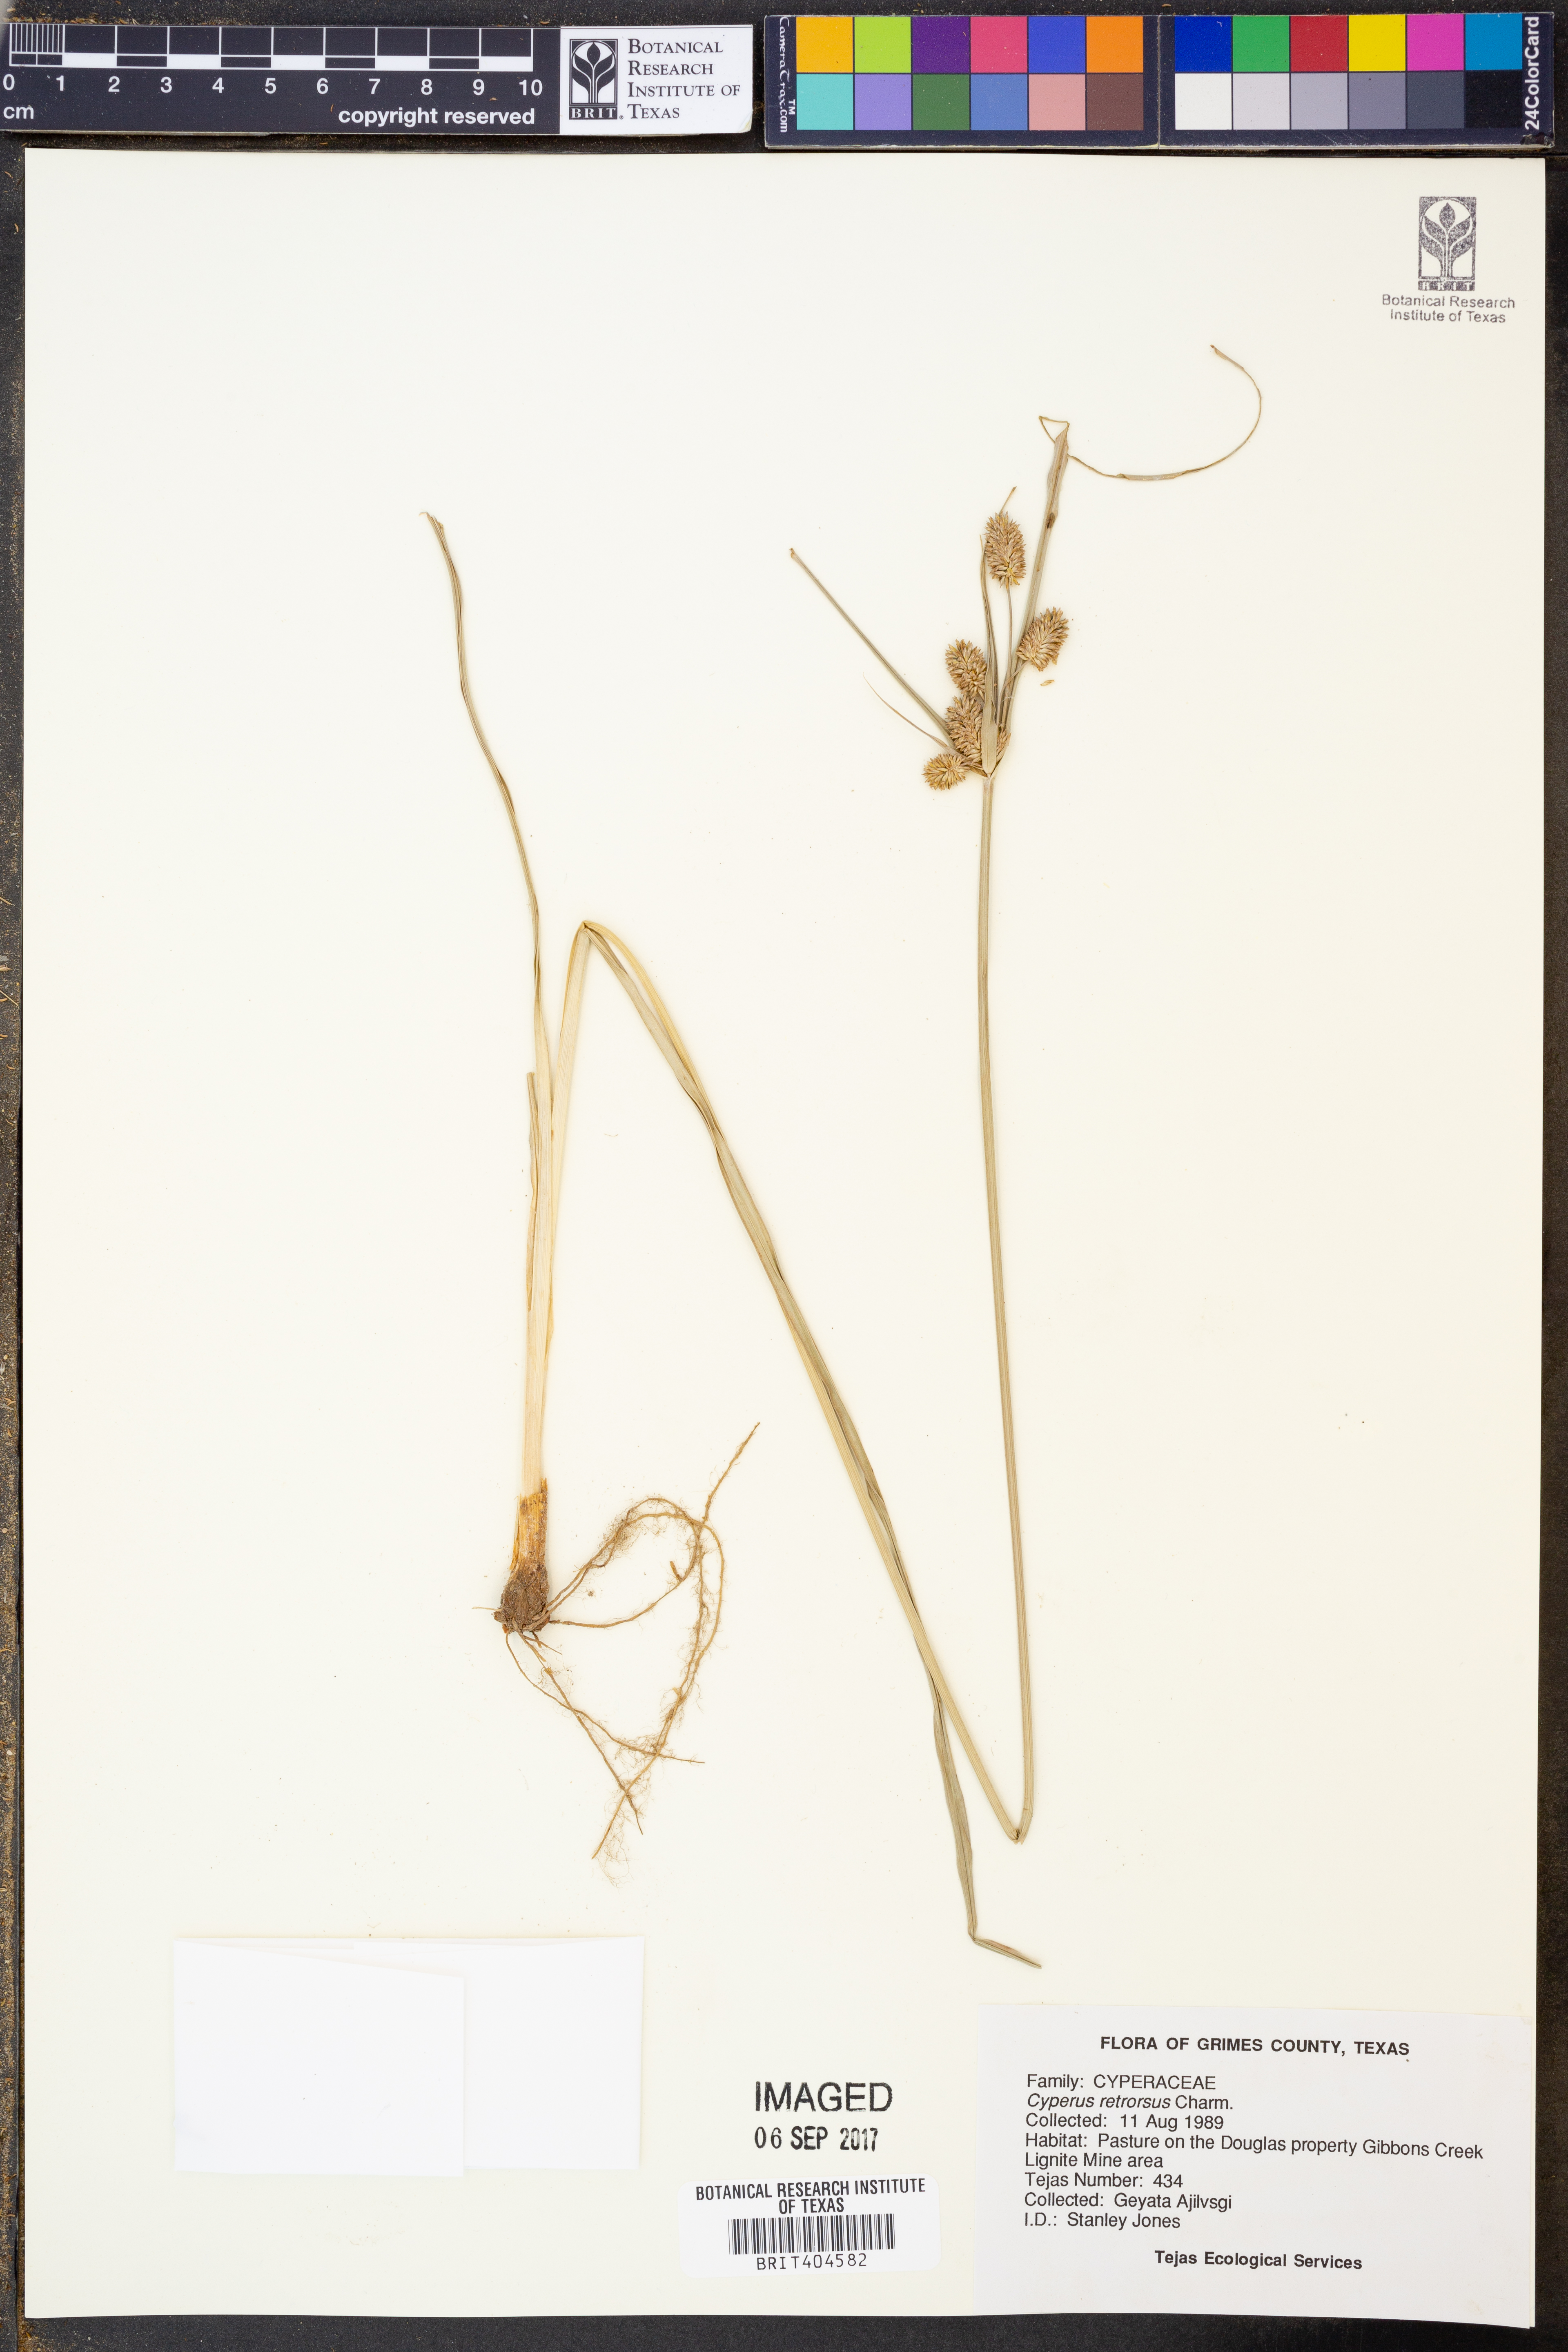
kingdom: Plantae
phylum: Tracheophyta
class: Liliopsida
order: Poales
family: Cyperaceae
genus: Cyperus
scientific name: Cyperus retrorsus
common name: Pinebarren flat sedge
